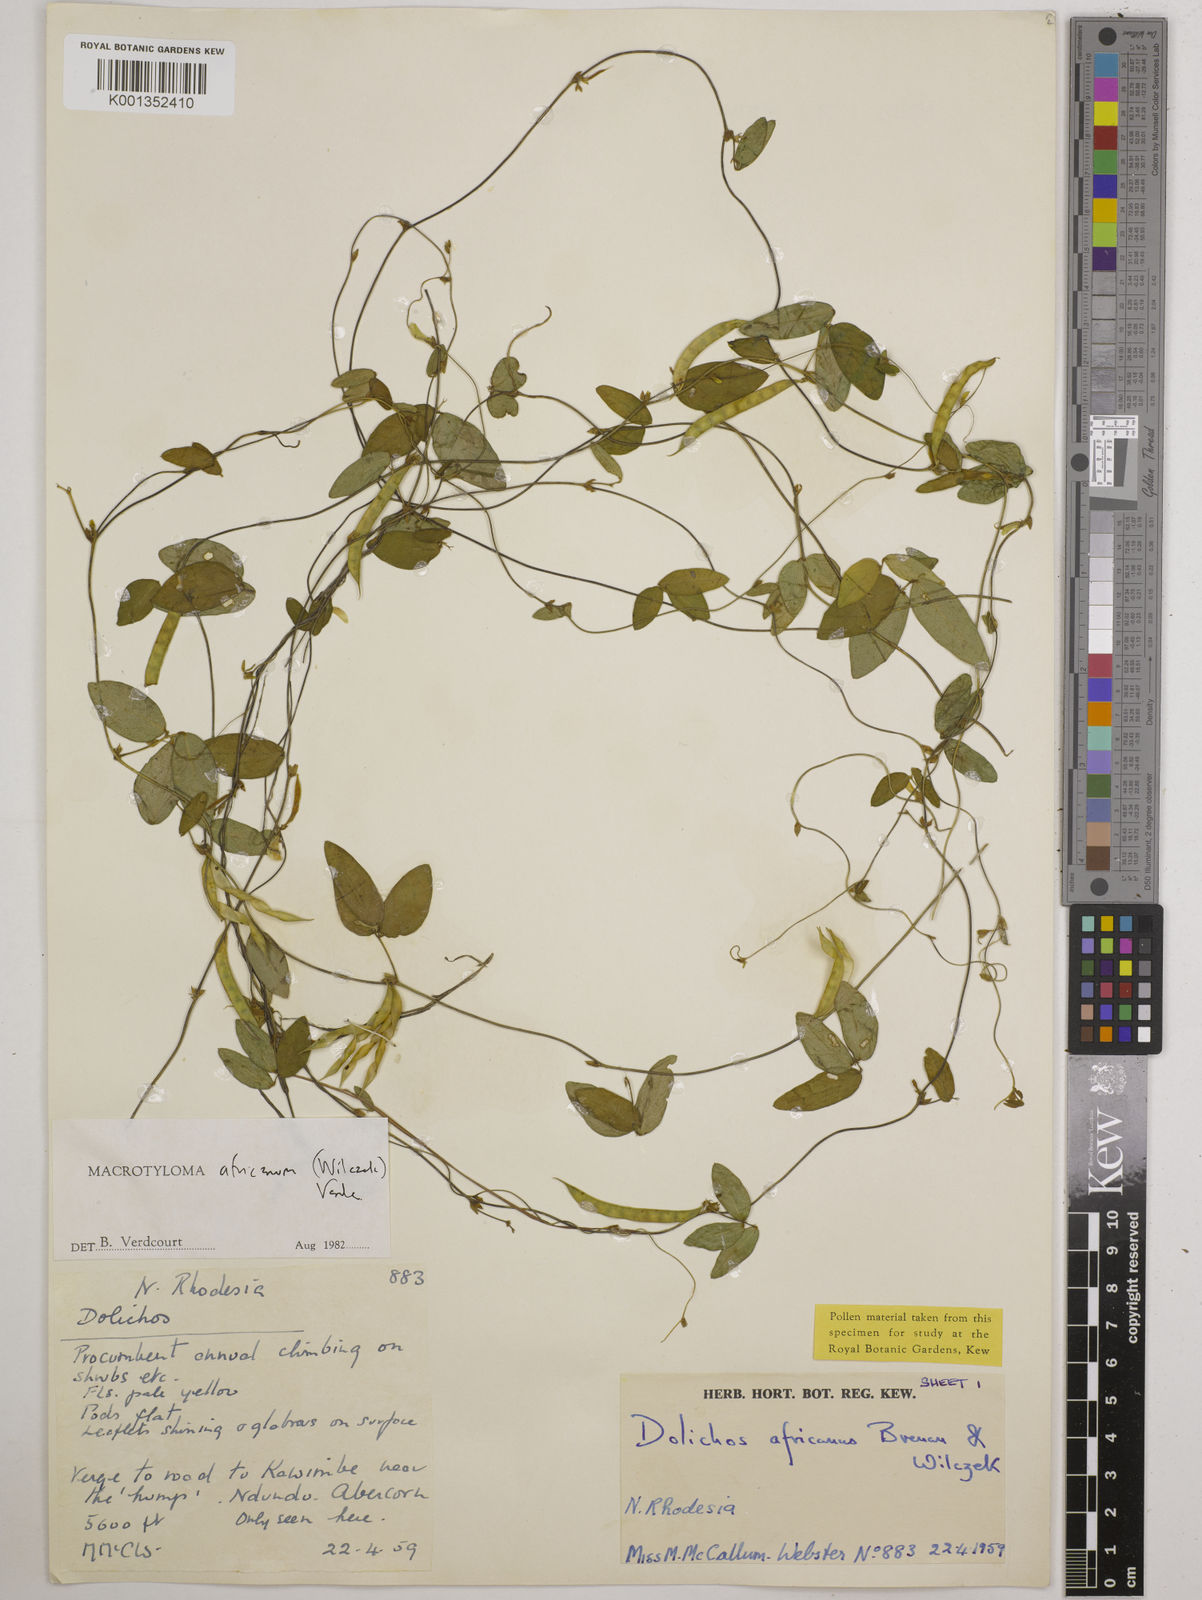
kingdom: Plantae
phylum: Tracheophyta
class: Magnoliopsida
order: Fabales
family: Fabaceae
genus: Macrotyloma
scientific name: Macrotyloma africanum
